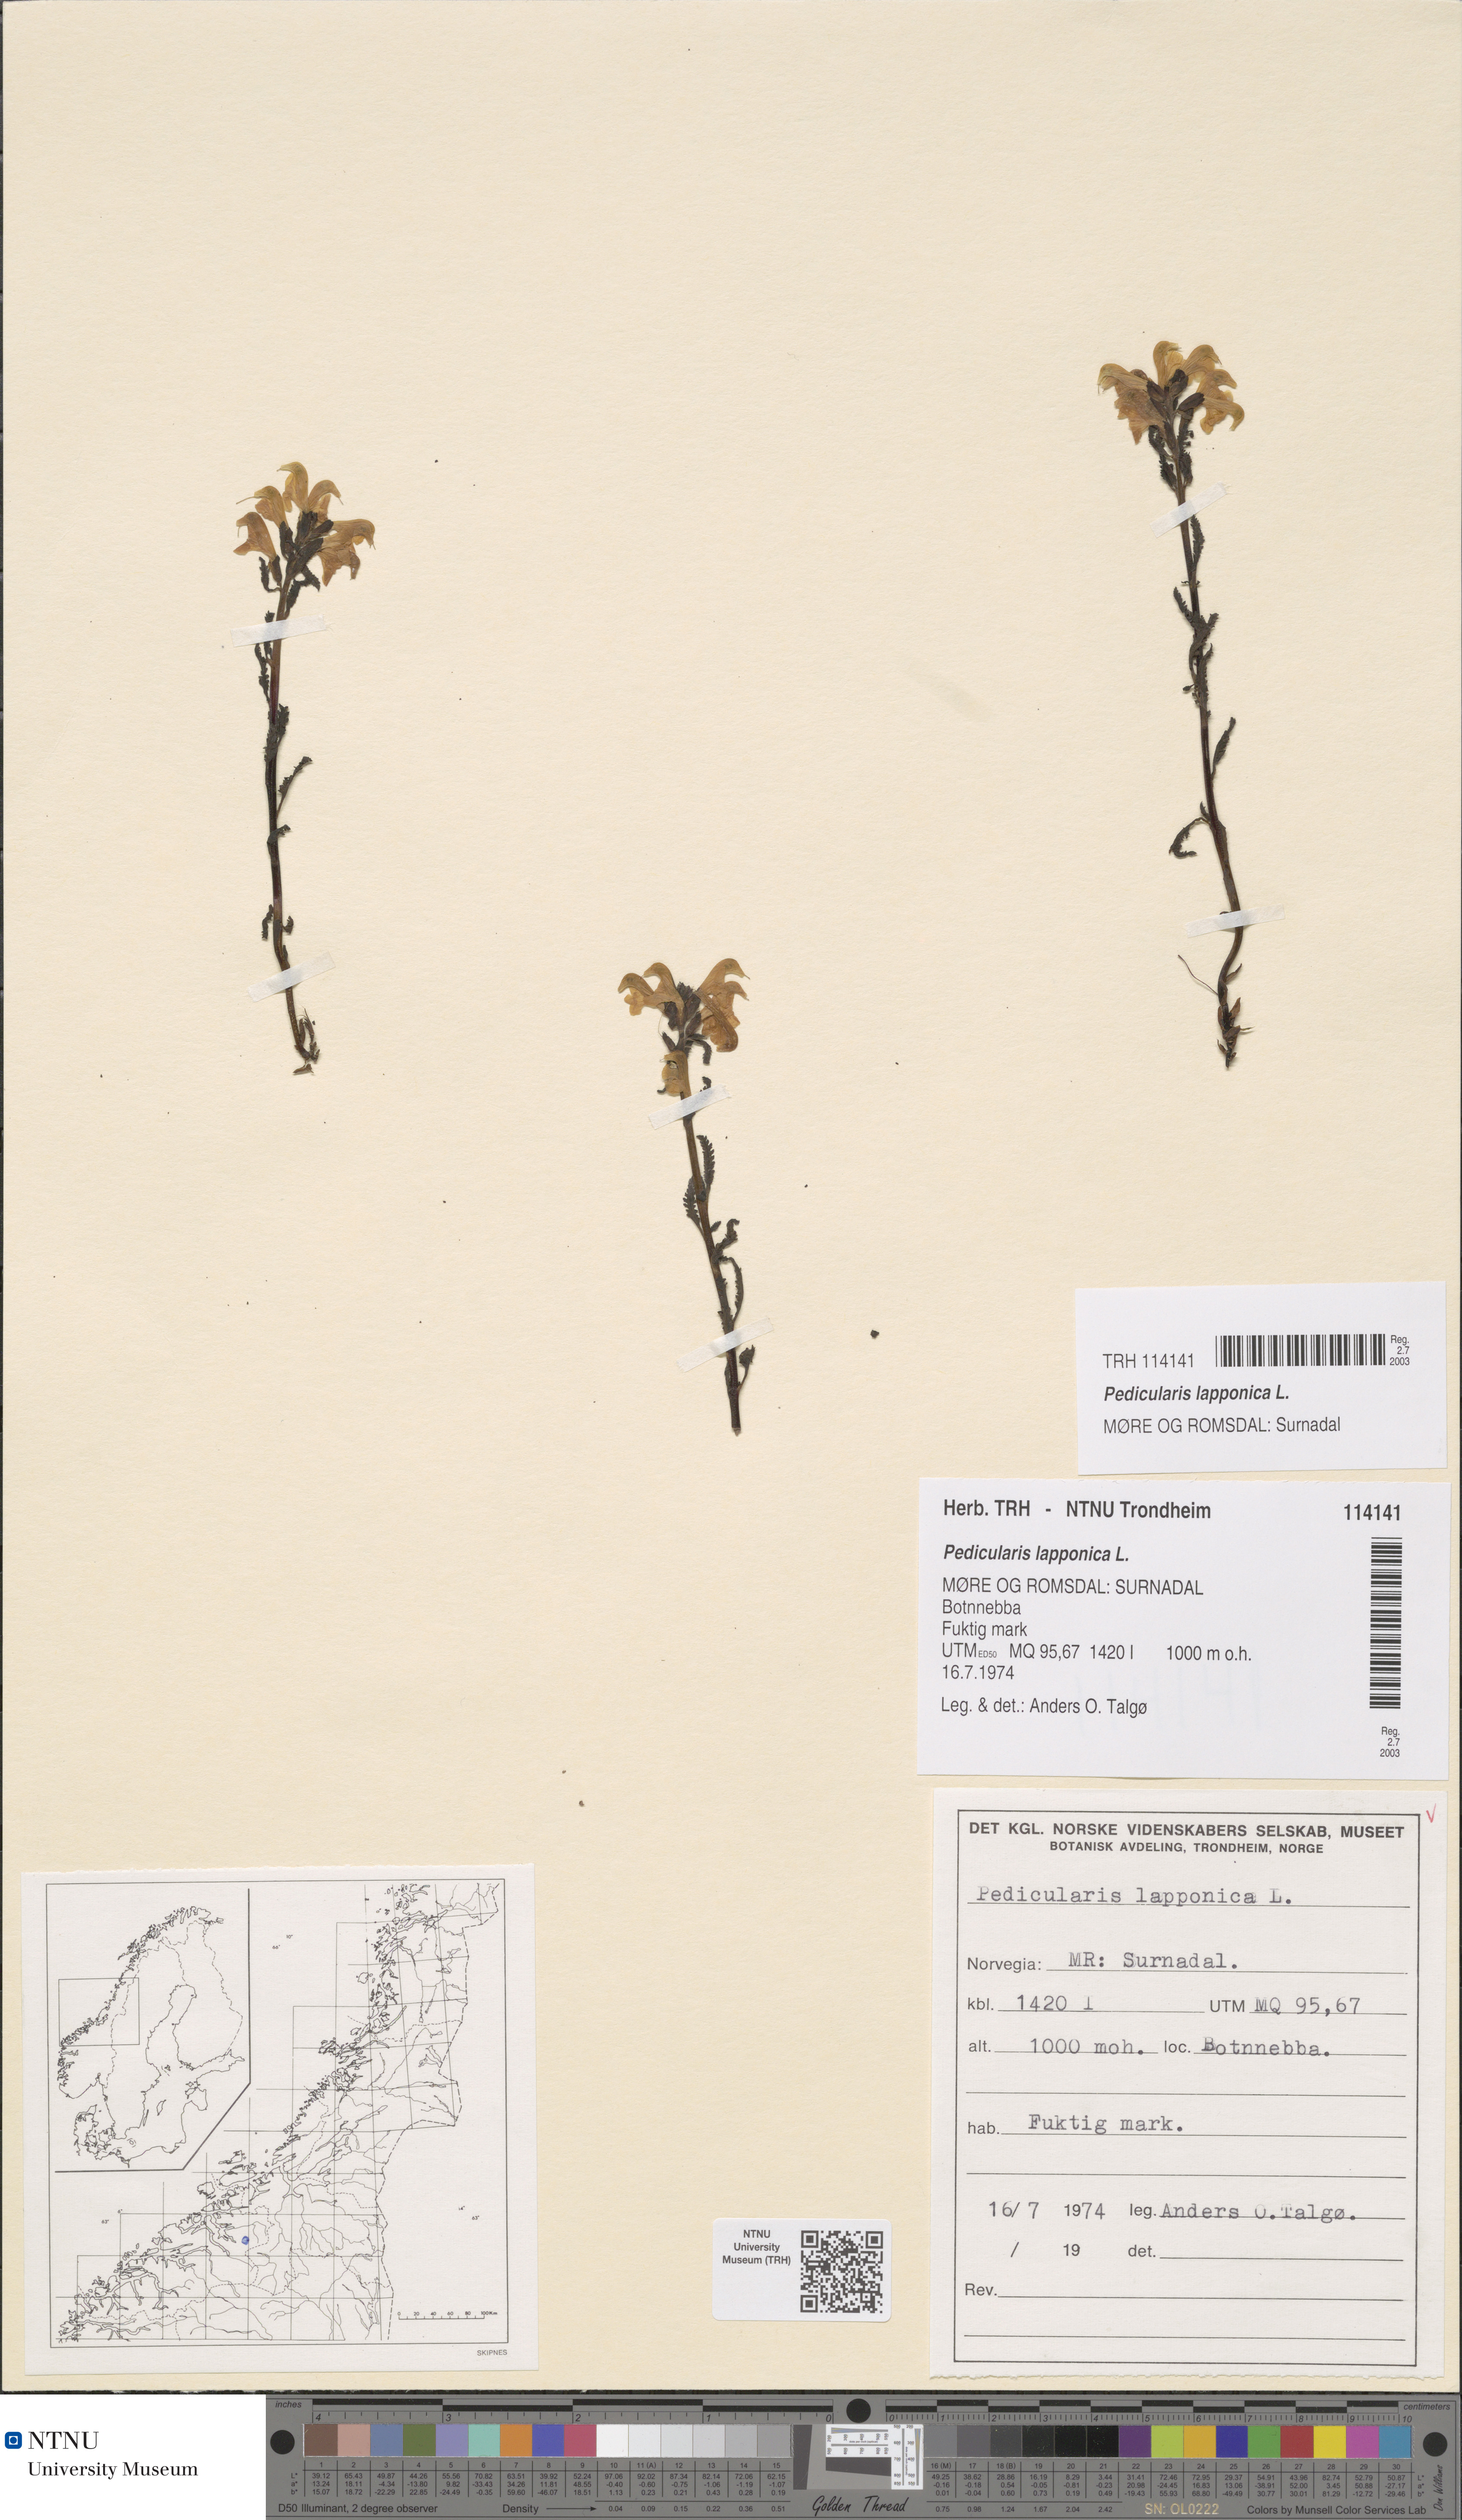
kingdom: Plantae
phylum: Tracheophyta
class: Magnoliopsida
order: Lamiales
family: Orobanchaceae
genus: Pedicularis
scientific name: Pedicularis lapponica
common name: Lapland lousewort
